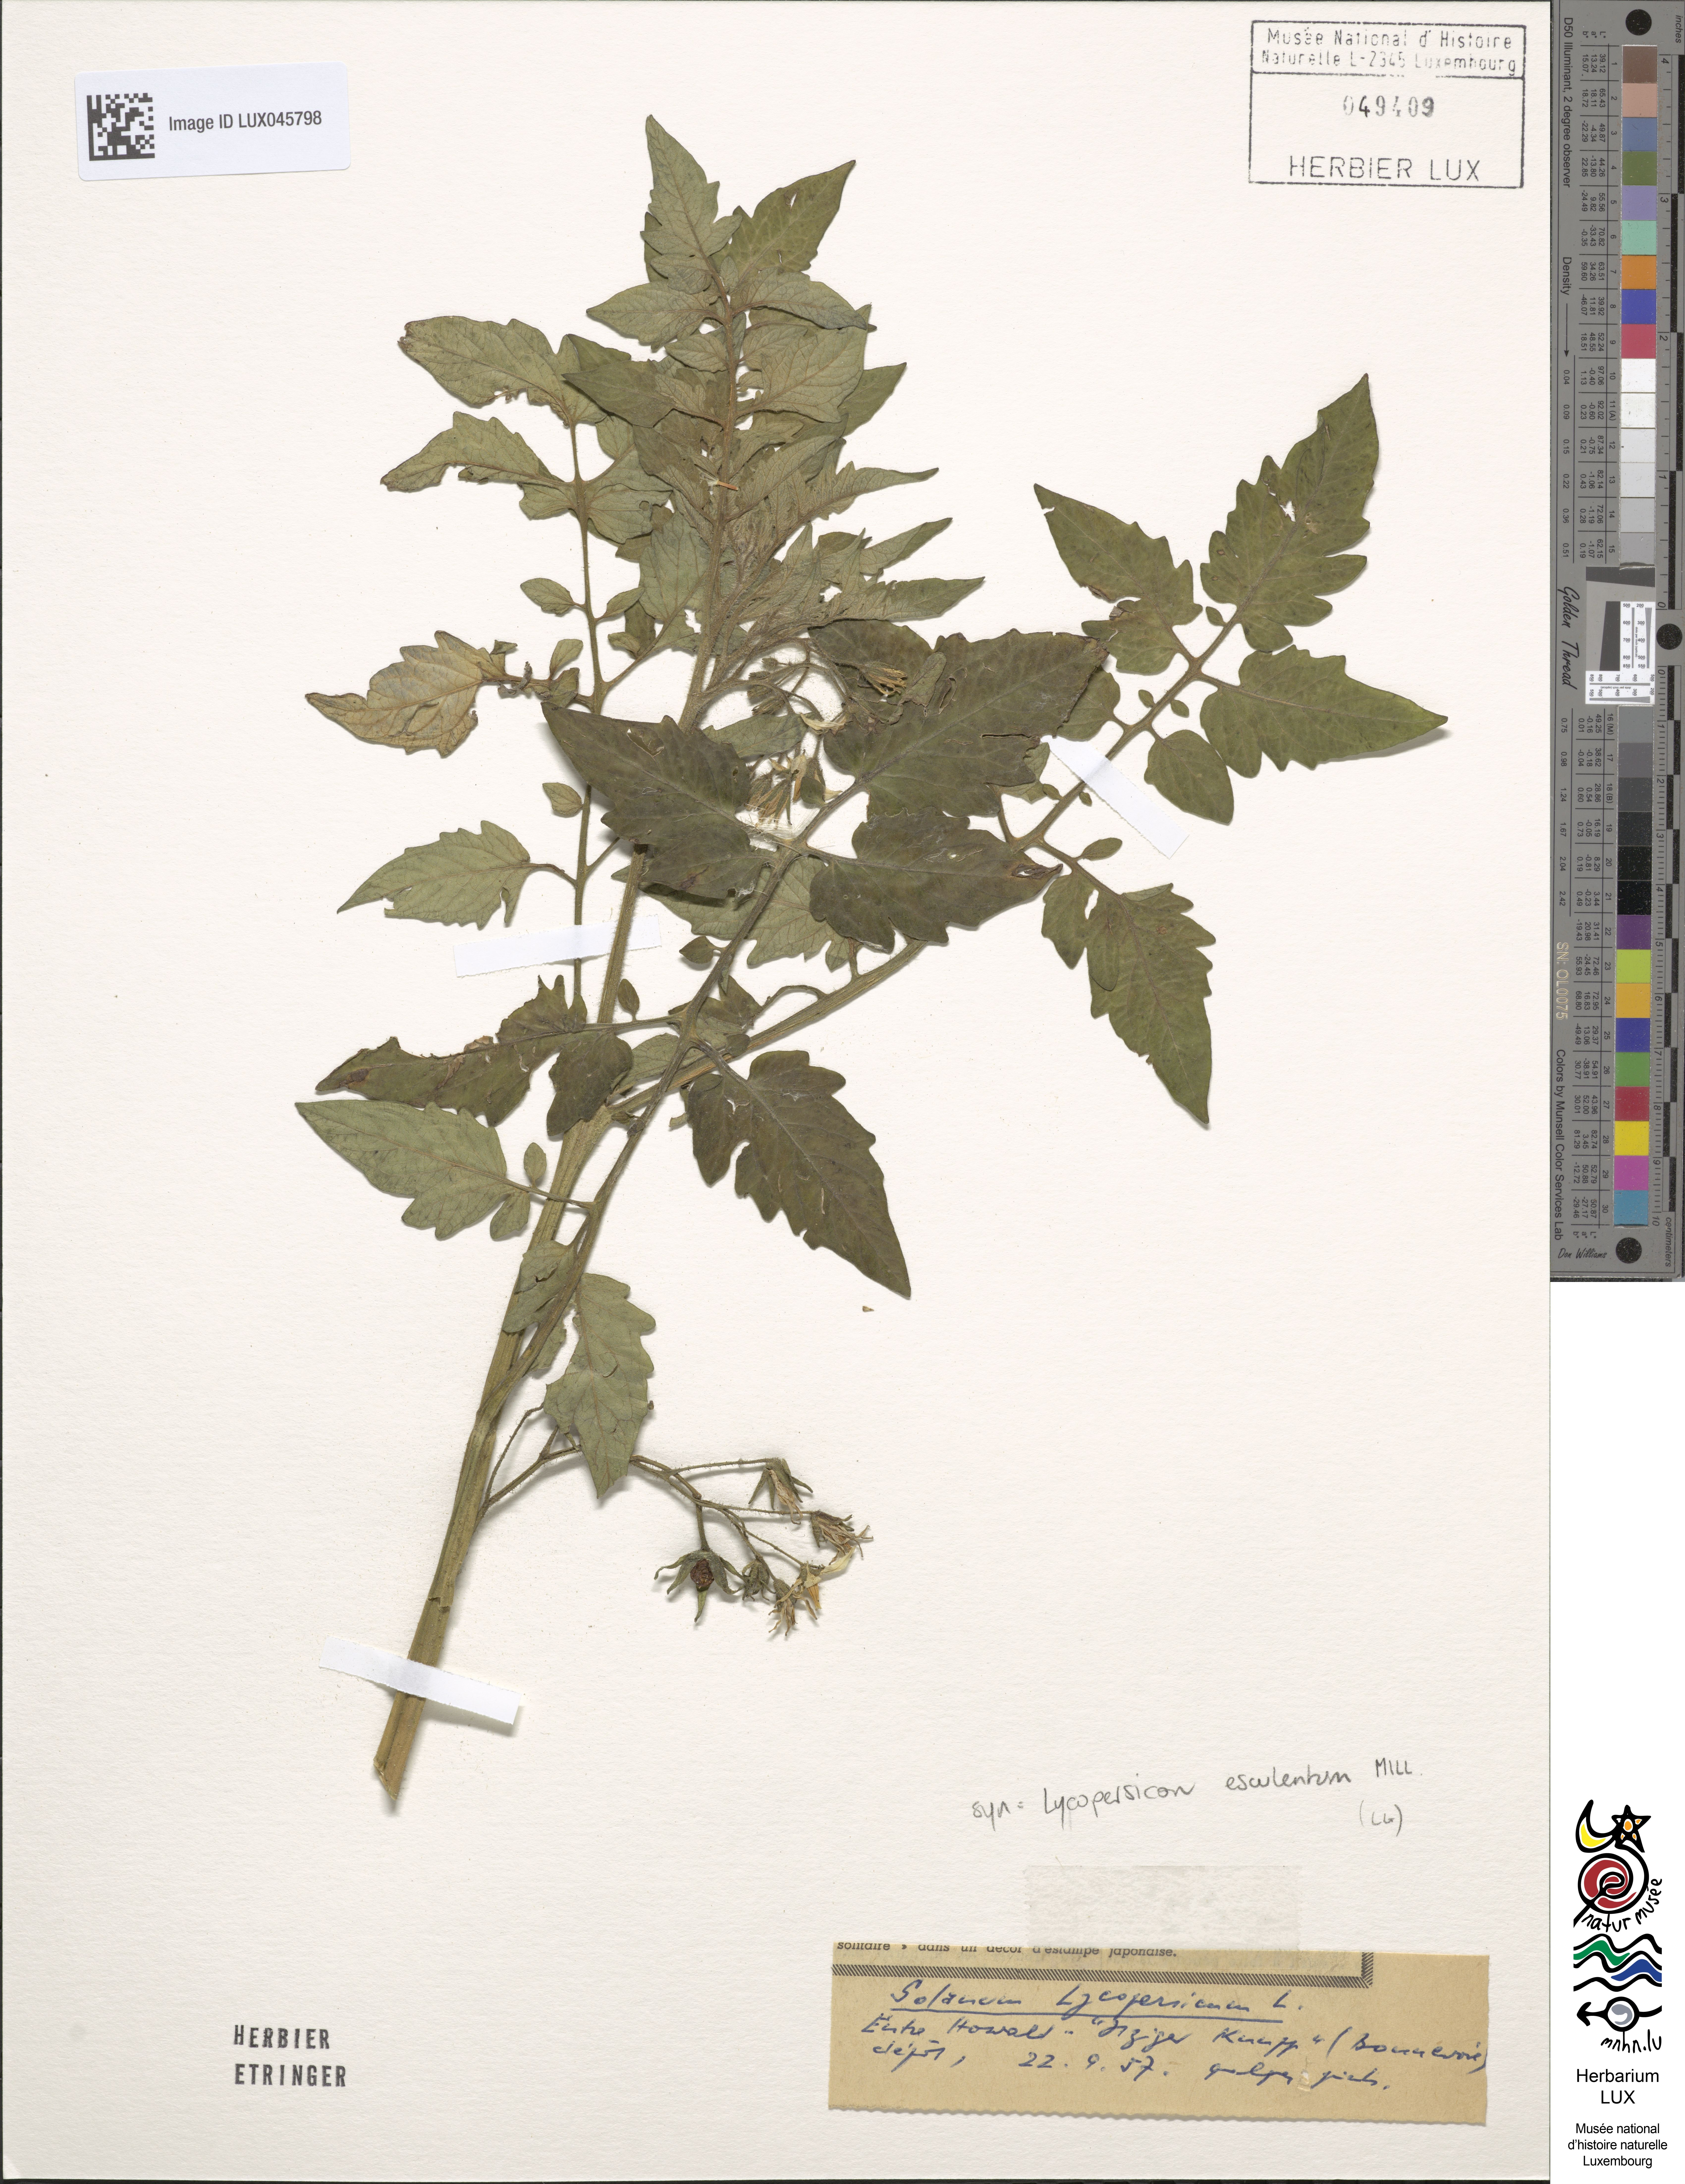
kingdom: Plantae
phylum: Tracheophyta
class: Magnoliopsida
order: Solanales
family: Solanaceae
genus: Solanum
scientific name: Solanum lycopersicum
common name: Garden tomato
